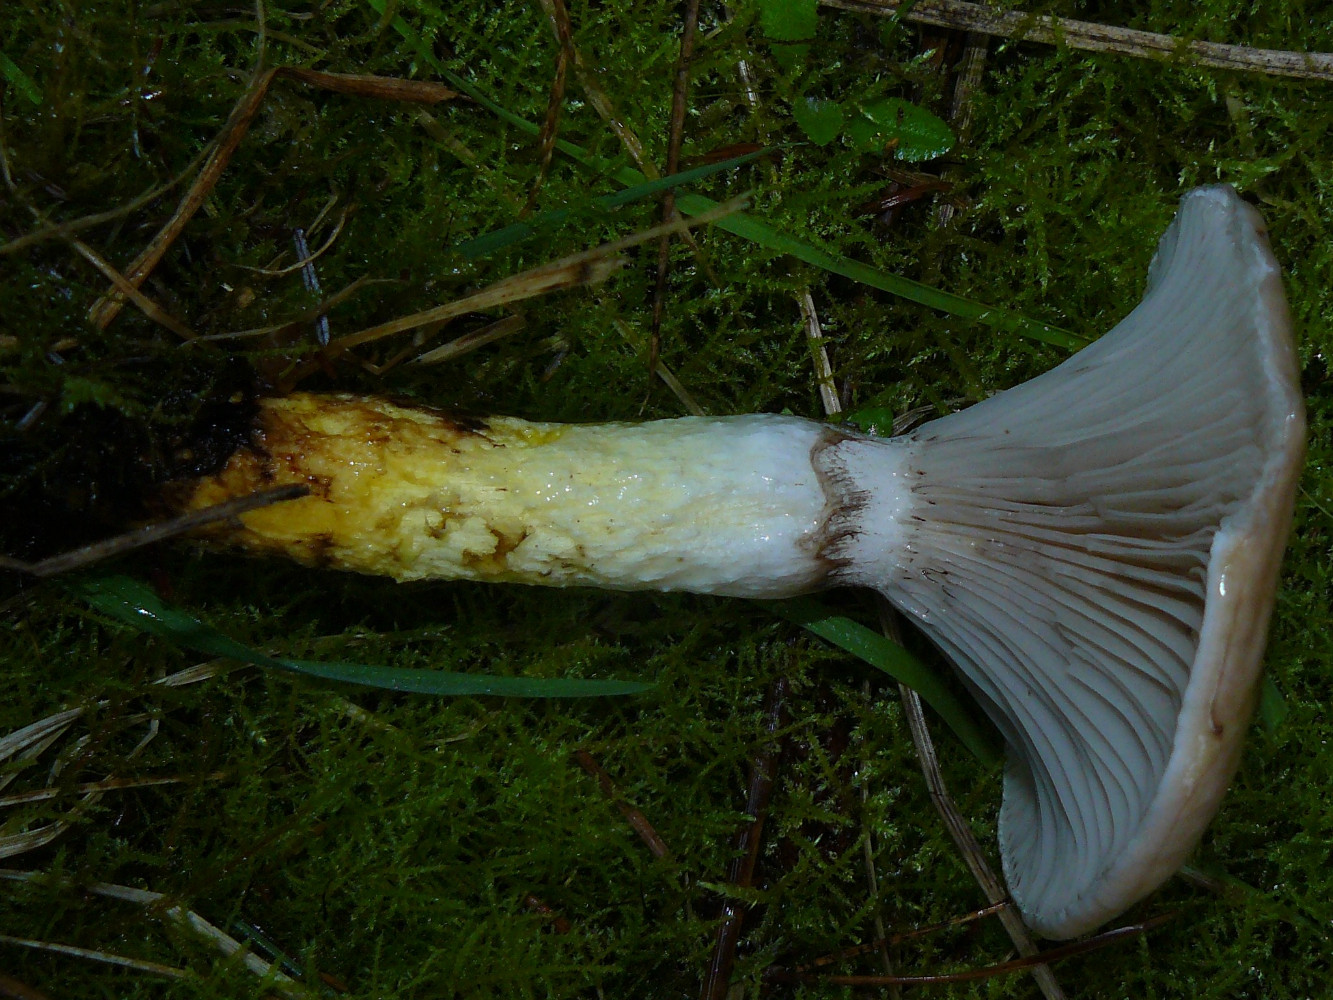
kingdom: Fungi
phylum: Basidiomycota
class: Agaricomycetes
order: Boletales
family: Gomphidiaceae
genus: Gomphidius
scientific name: Gomphidius glutinosus
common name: grå slimslør
